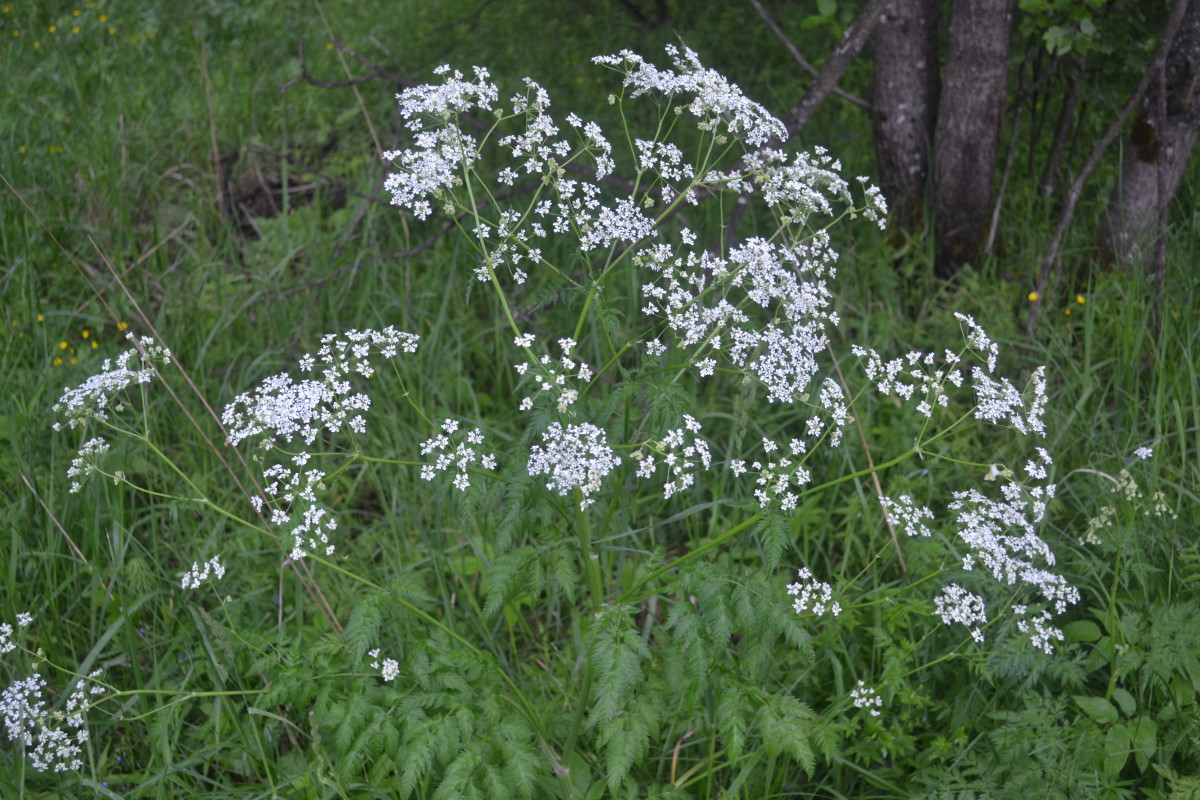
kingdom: Plantae
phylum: Tracheophyta
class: Magnoliopsida
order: Apiales
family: Apiaceae
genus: Anthriscus
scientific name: Anthriscus sylvestris
